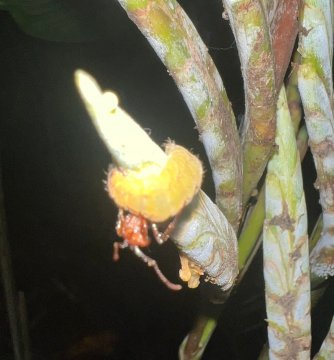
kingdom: Animalia
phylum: Arthropoda
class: Insecta
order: Lepidoptera
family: Lycaenidae
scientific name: Lycaenidae
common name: Gossamerwings
